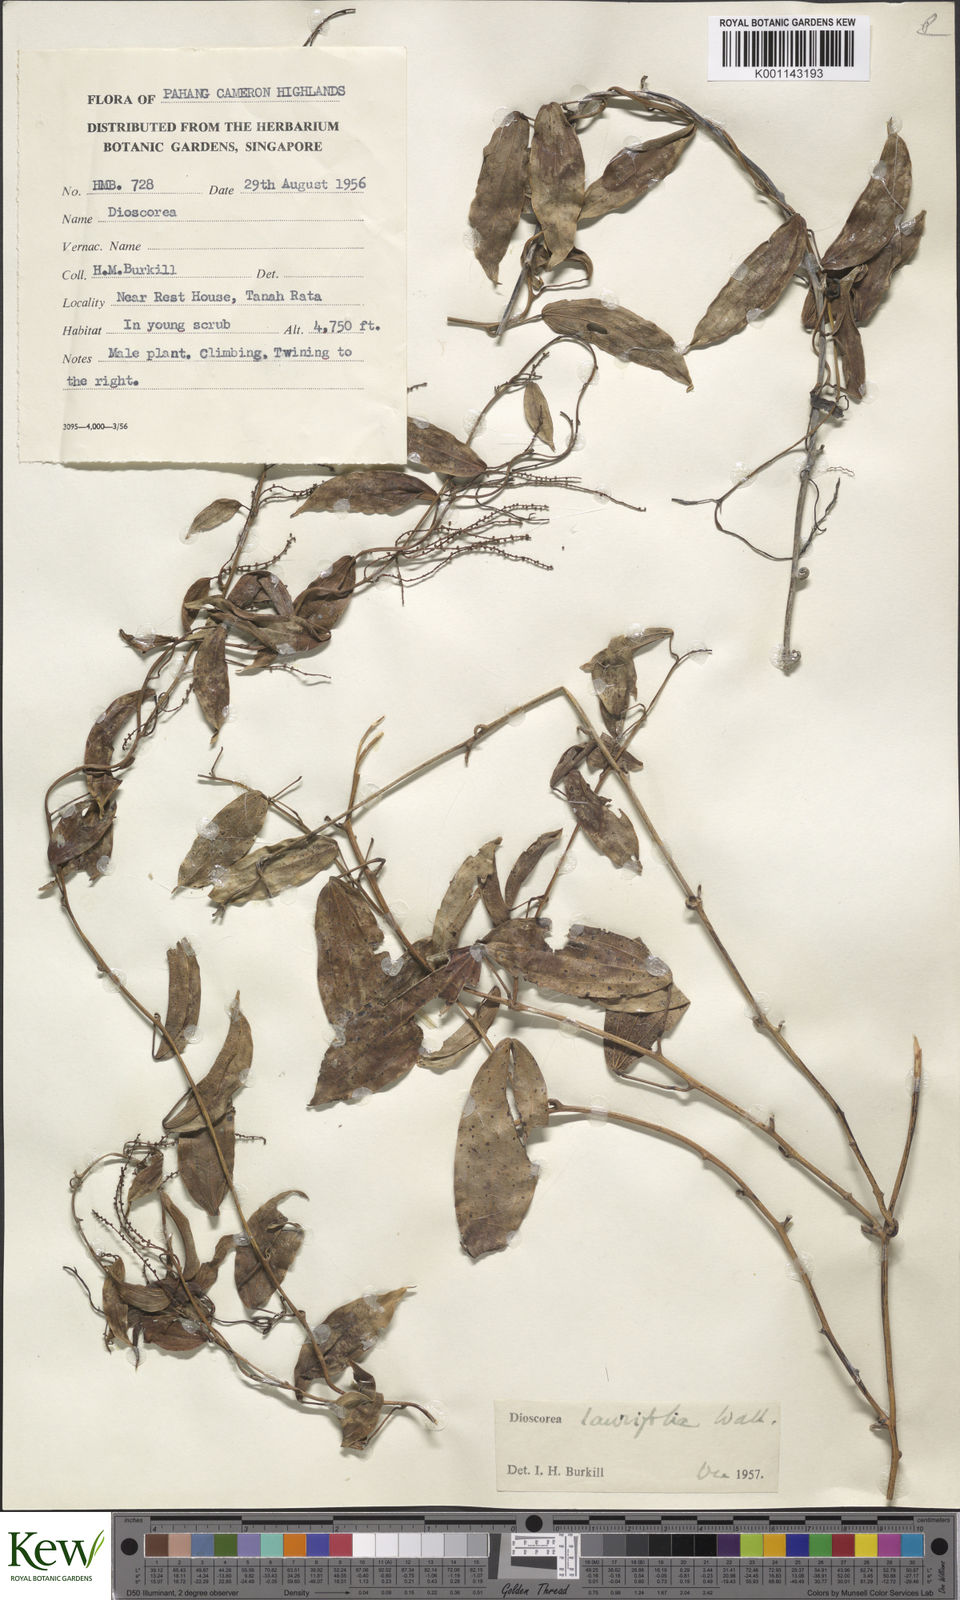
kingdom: Plantae
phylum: Tracheophyta
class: Liliopsida
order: Dioscoreales
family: Dioscoreaceae
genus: Dioscorea
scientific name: Dioscorea laurifolia
